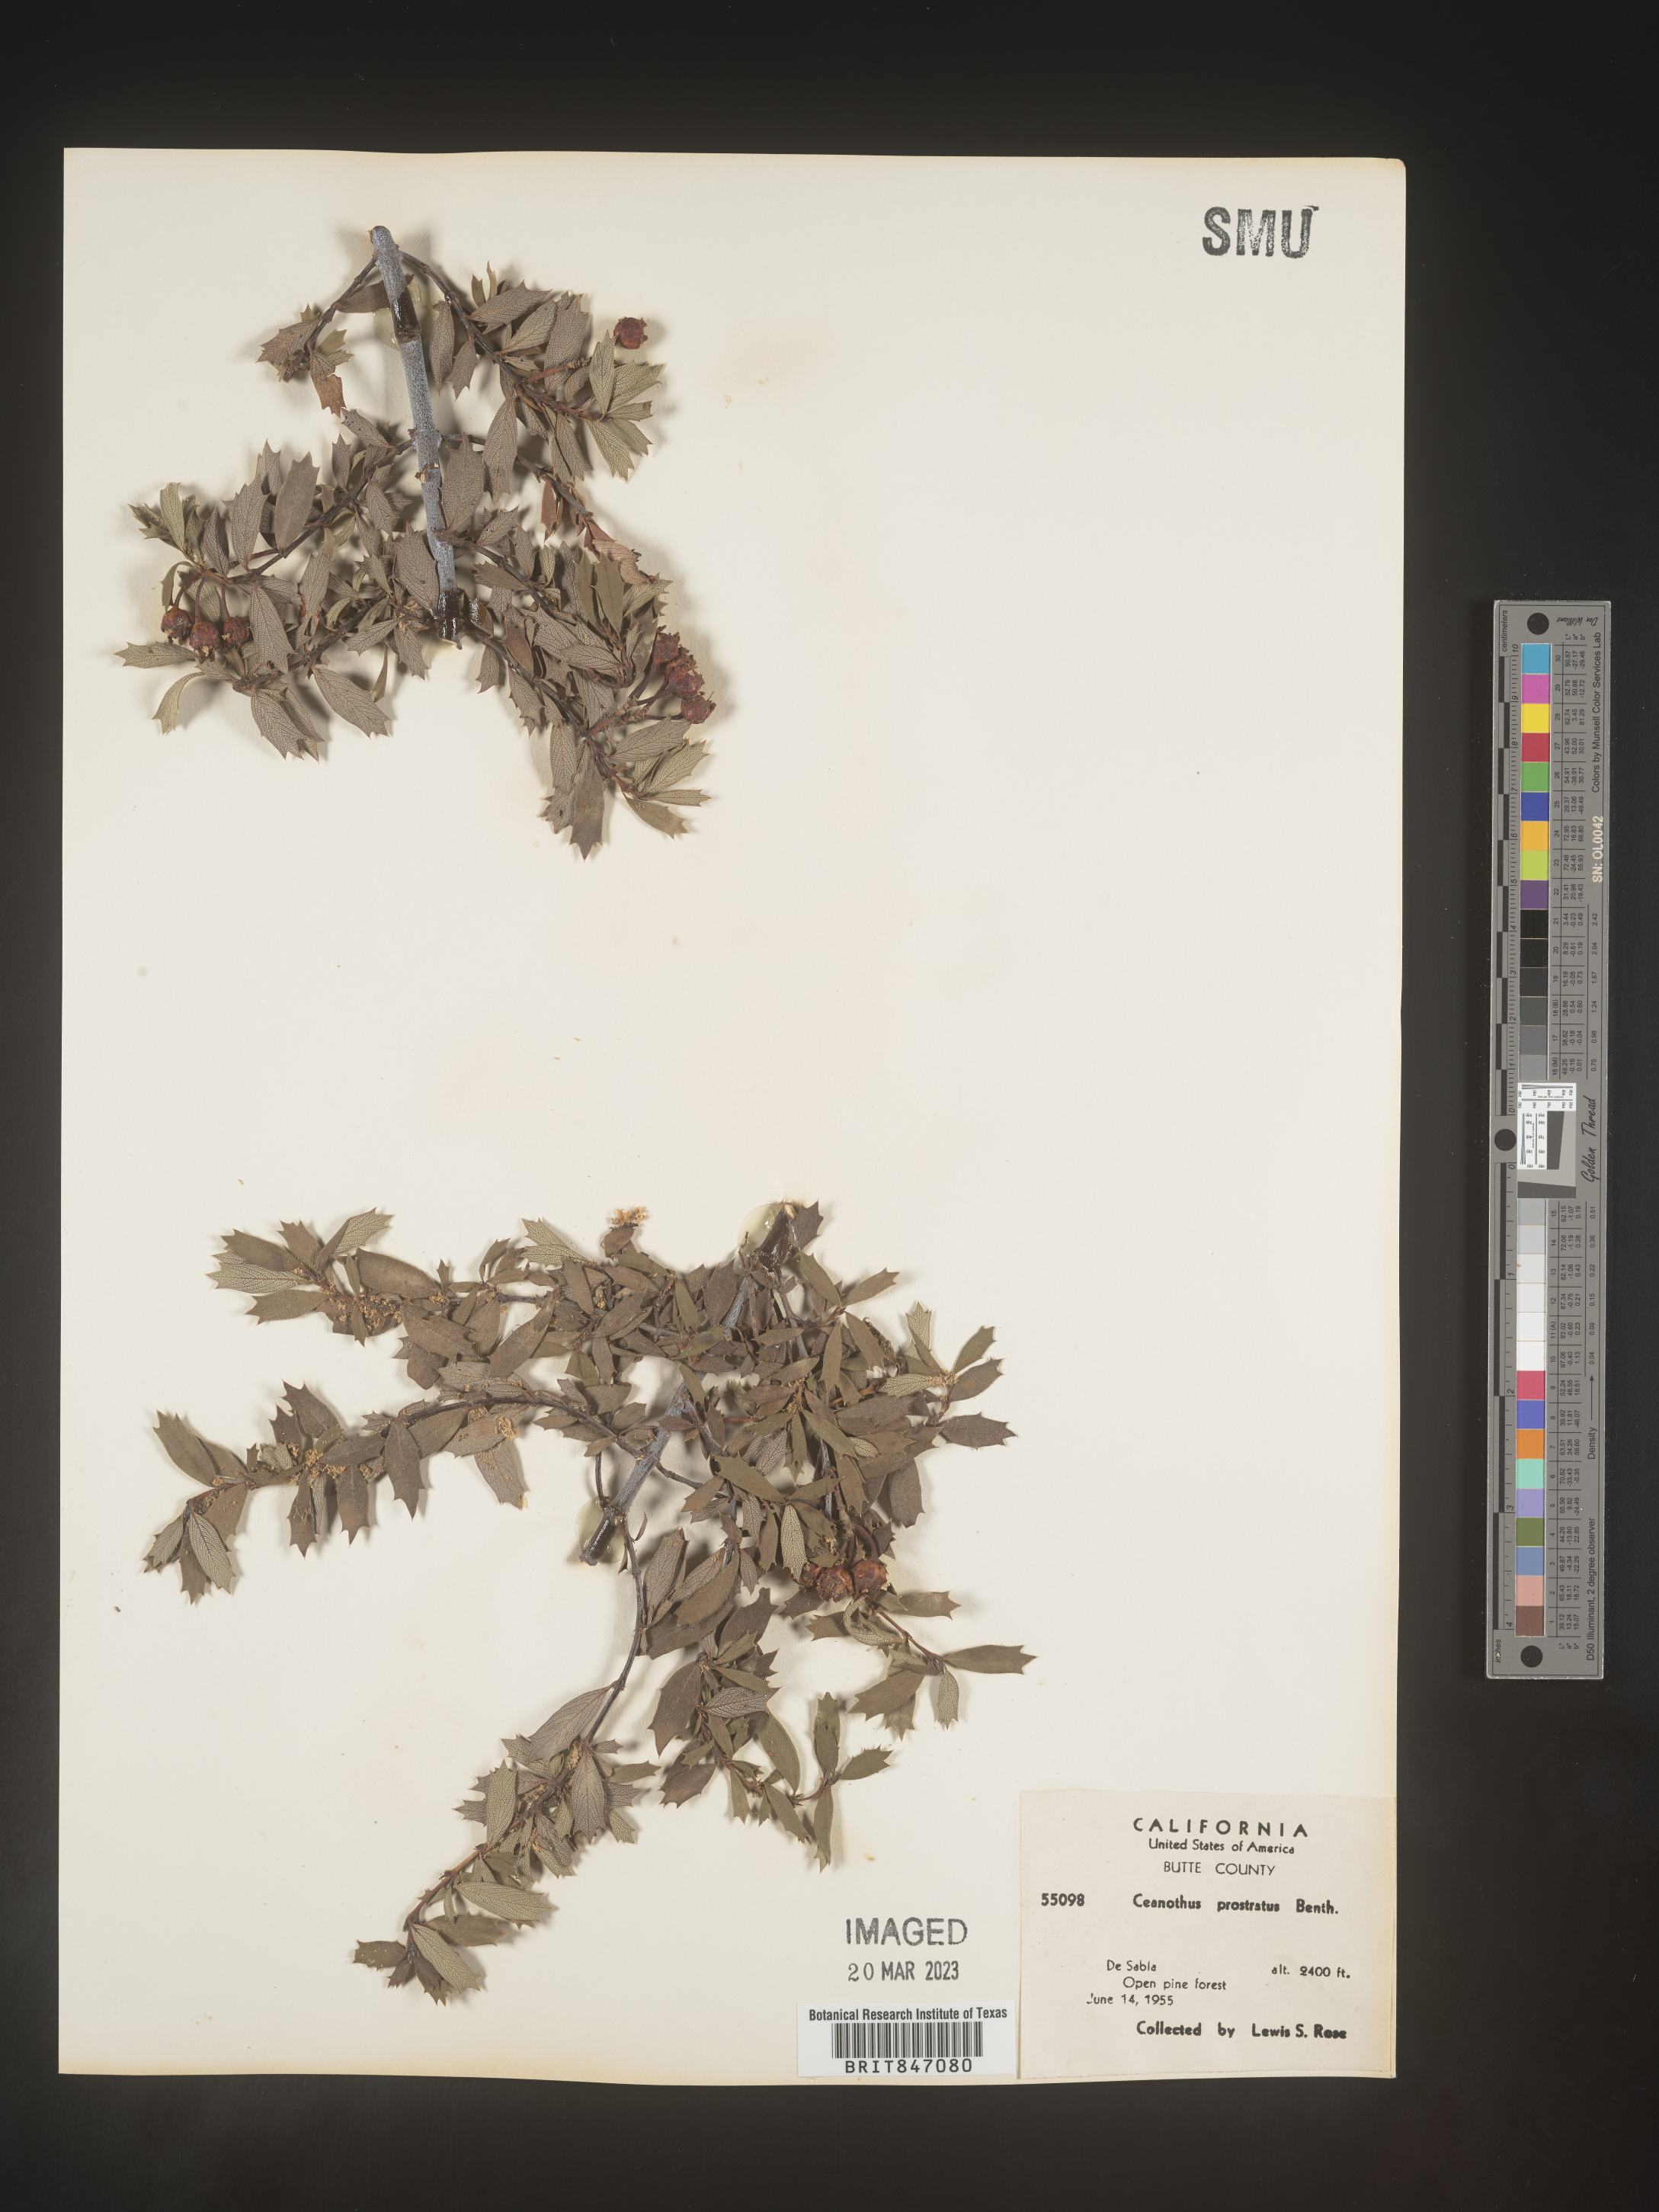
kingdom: Plantae
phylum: Tracheophyta
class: Magnoliopsida
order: Rosales
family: Rhamnaceae
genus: Ceanothus
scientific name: Ceanothus
